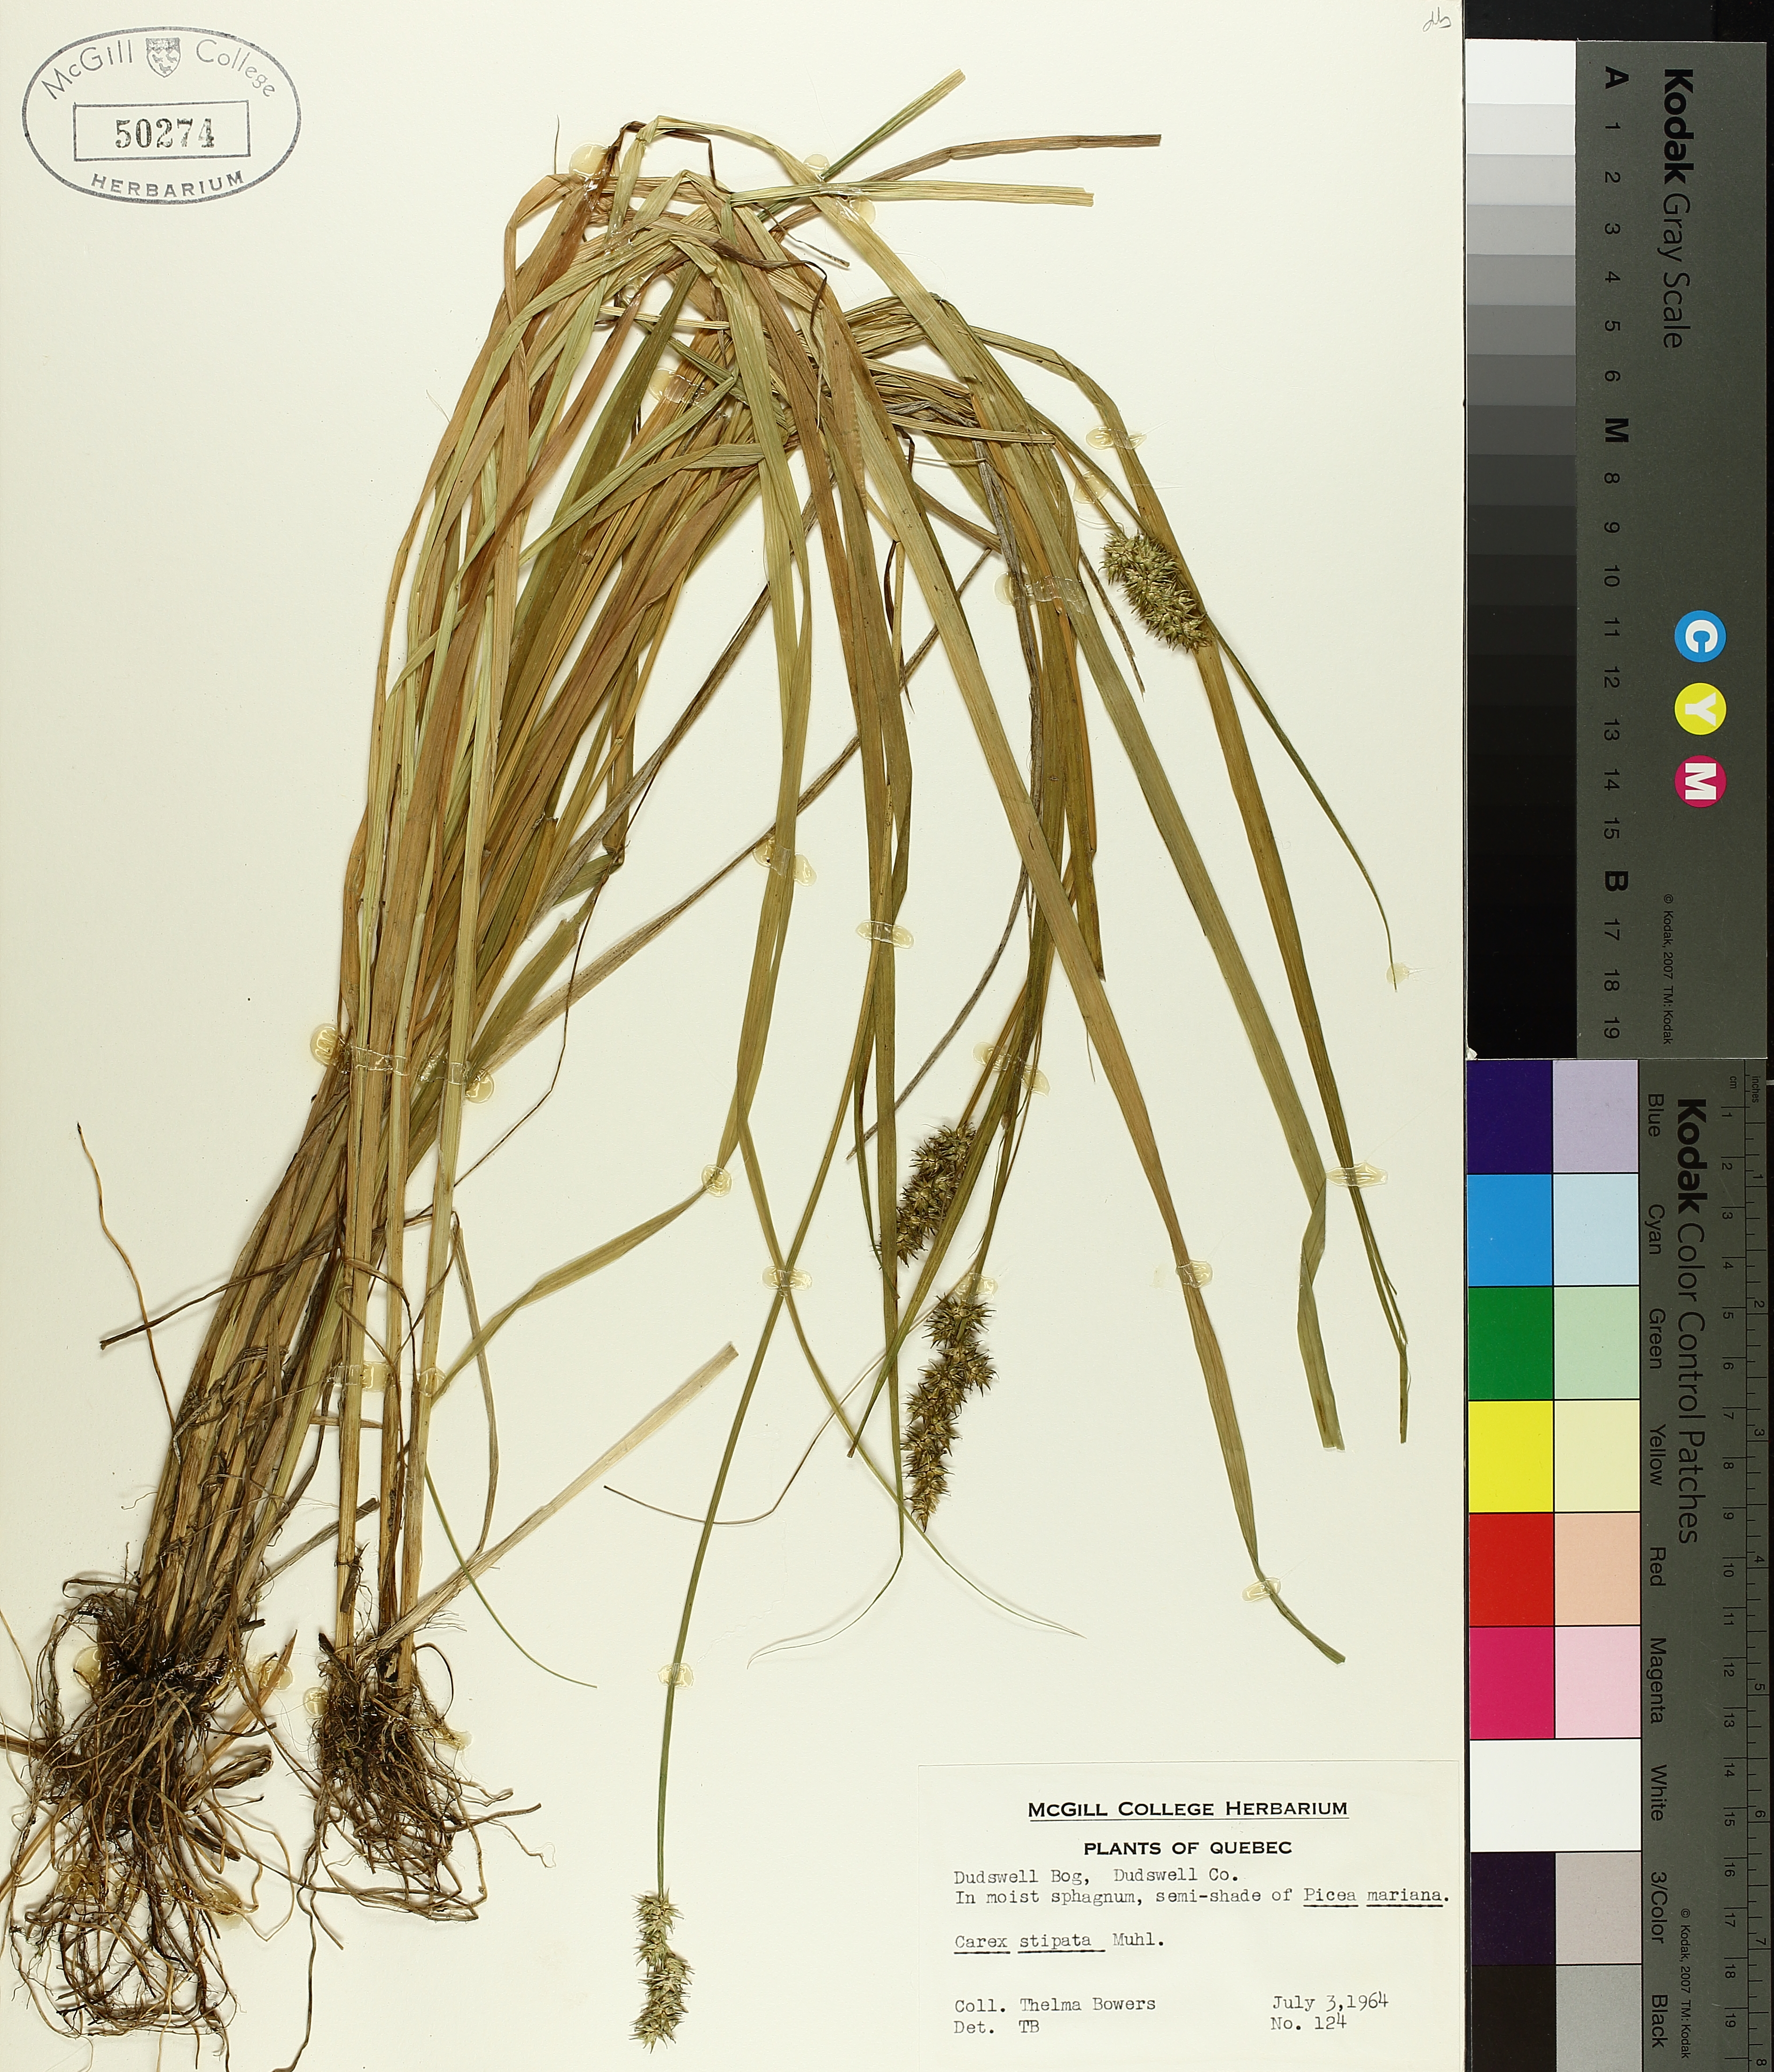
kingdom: Plantae
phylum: Tracheophyta
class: Liliopsida
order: Poales
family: Cyperaceae
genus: Carex
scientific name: Carex stipata
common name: Awl-fruited sedge
